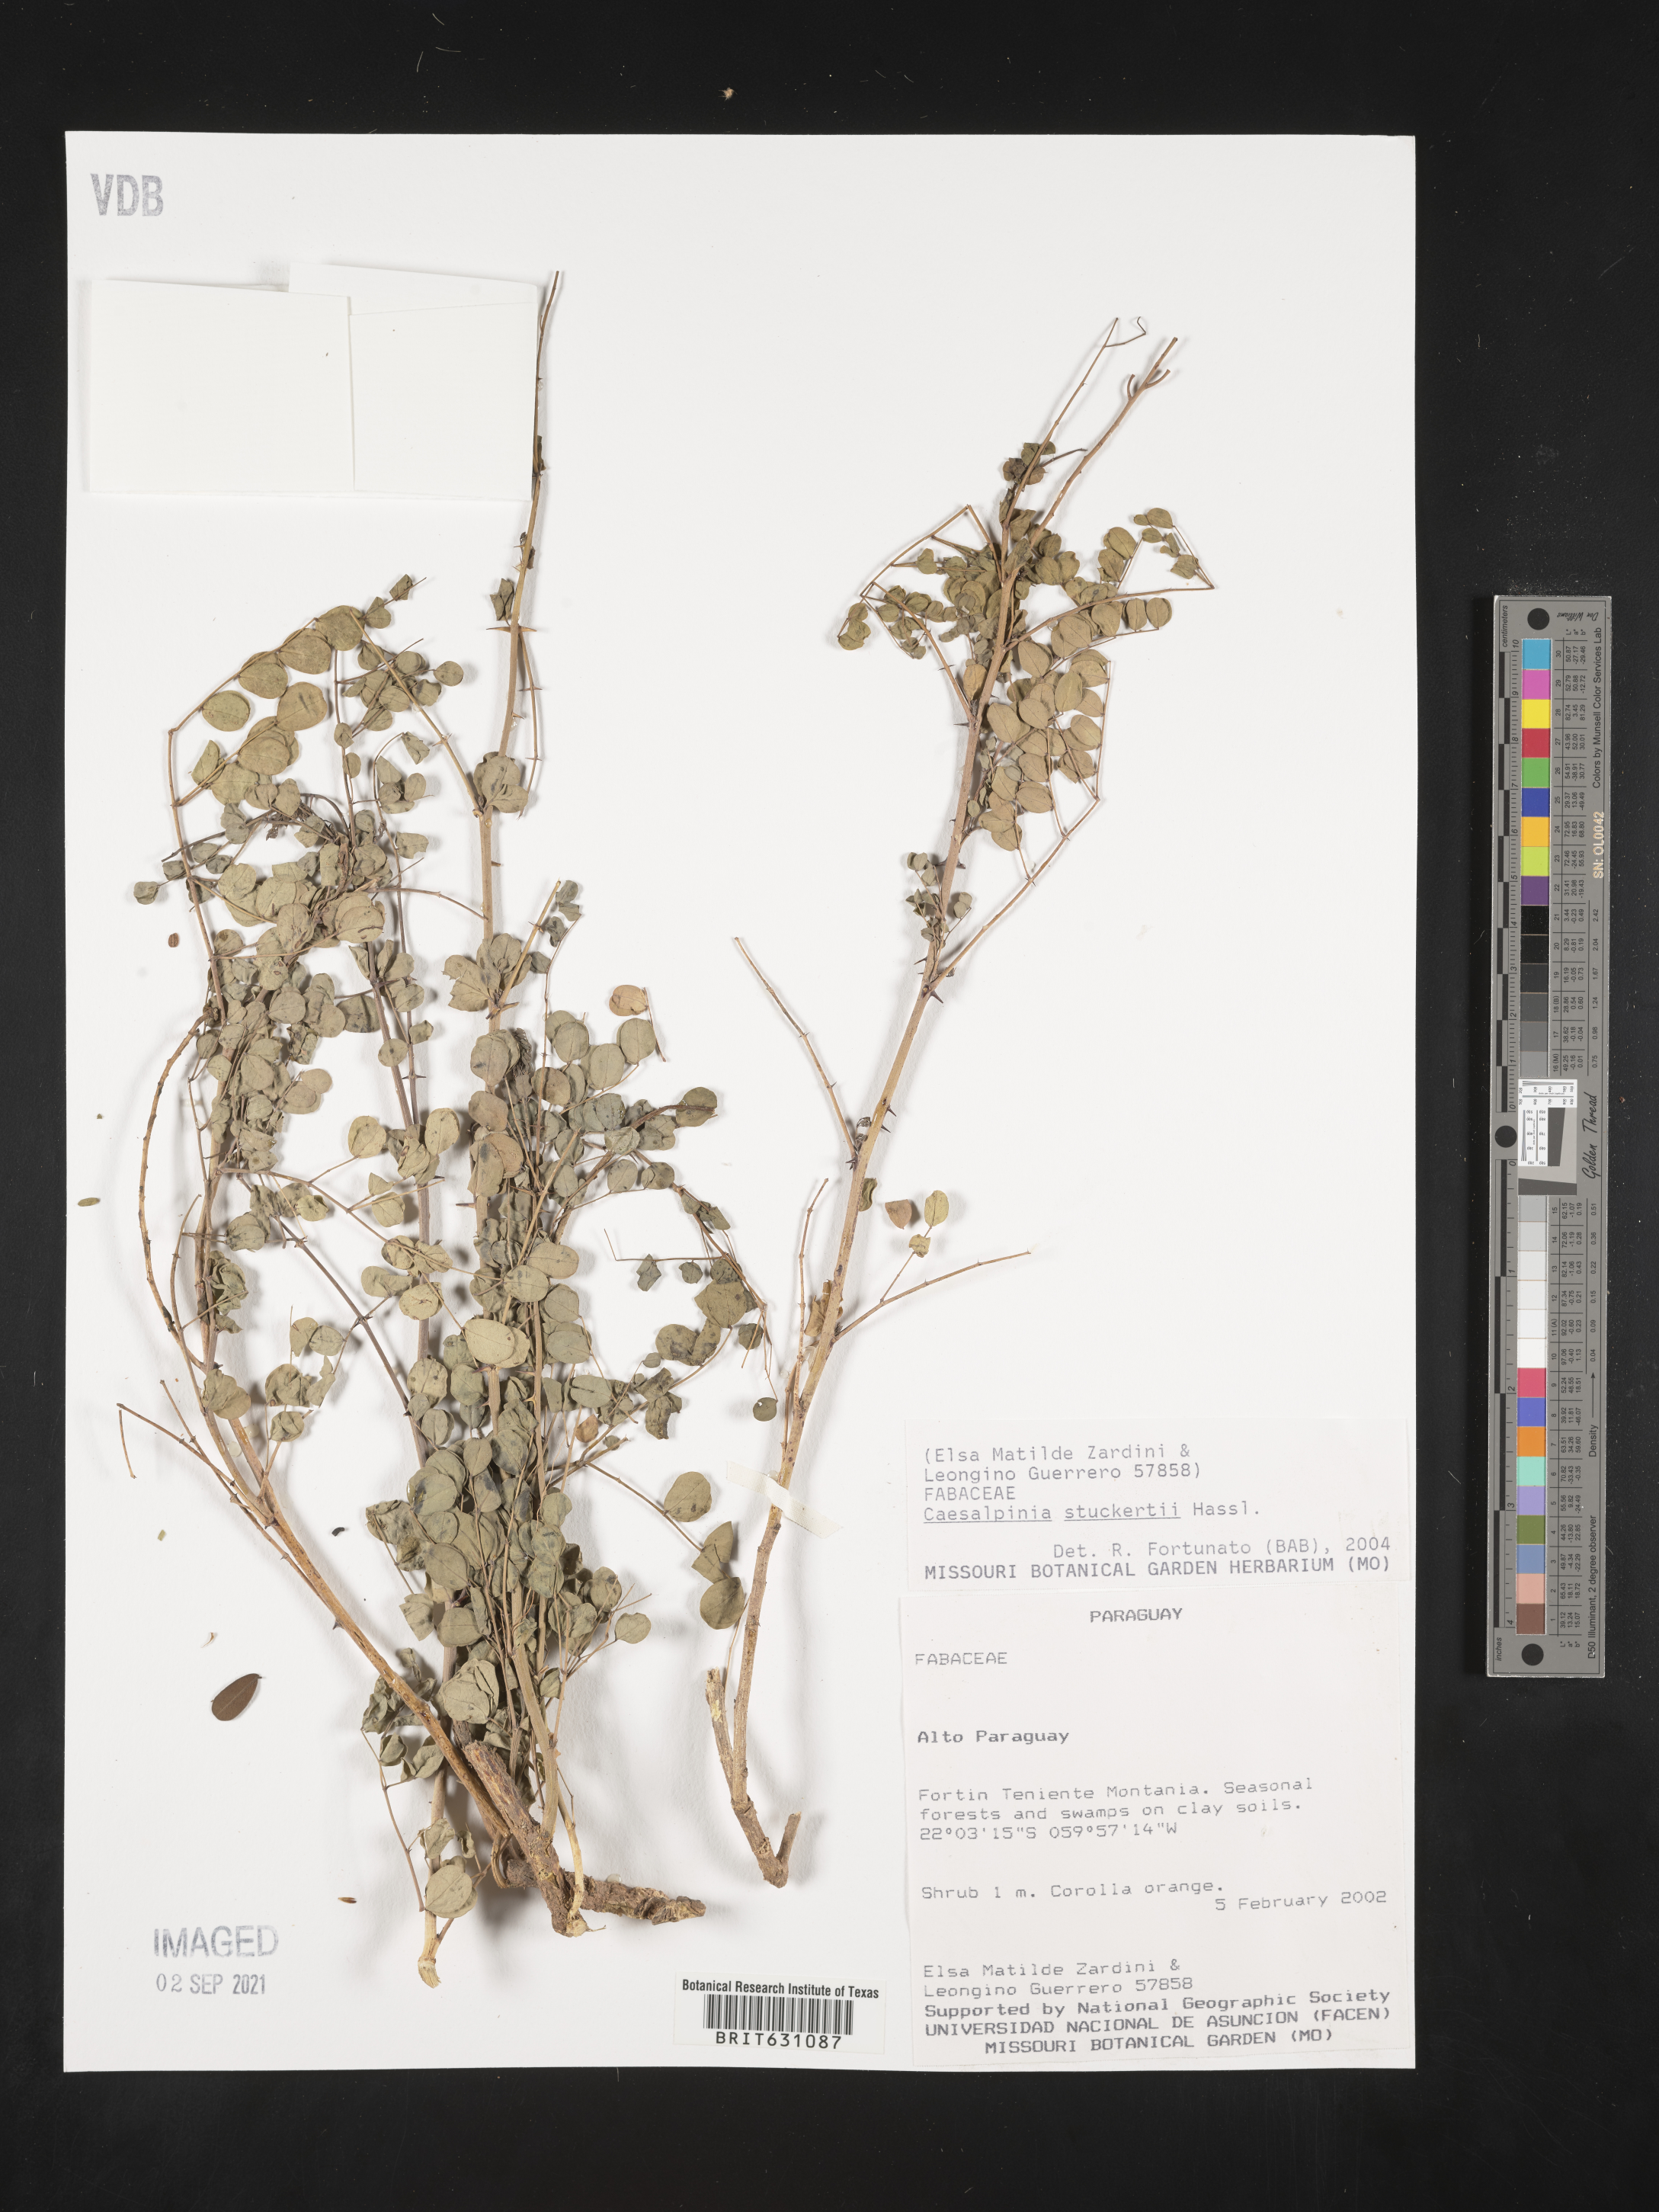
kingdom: Plantae
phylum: Tracheophyta
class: Magnoliopsida
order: Fabales
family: Fabaceae
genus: Caesalpinia
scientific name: Caesalpinia
